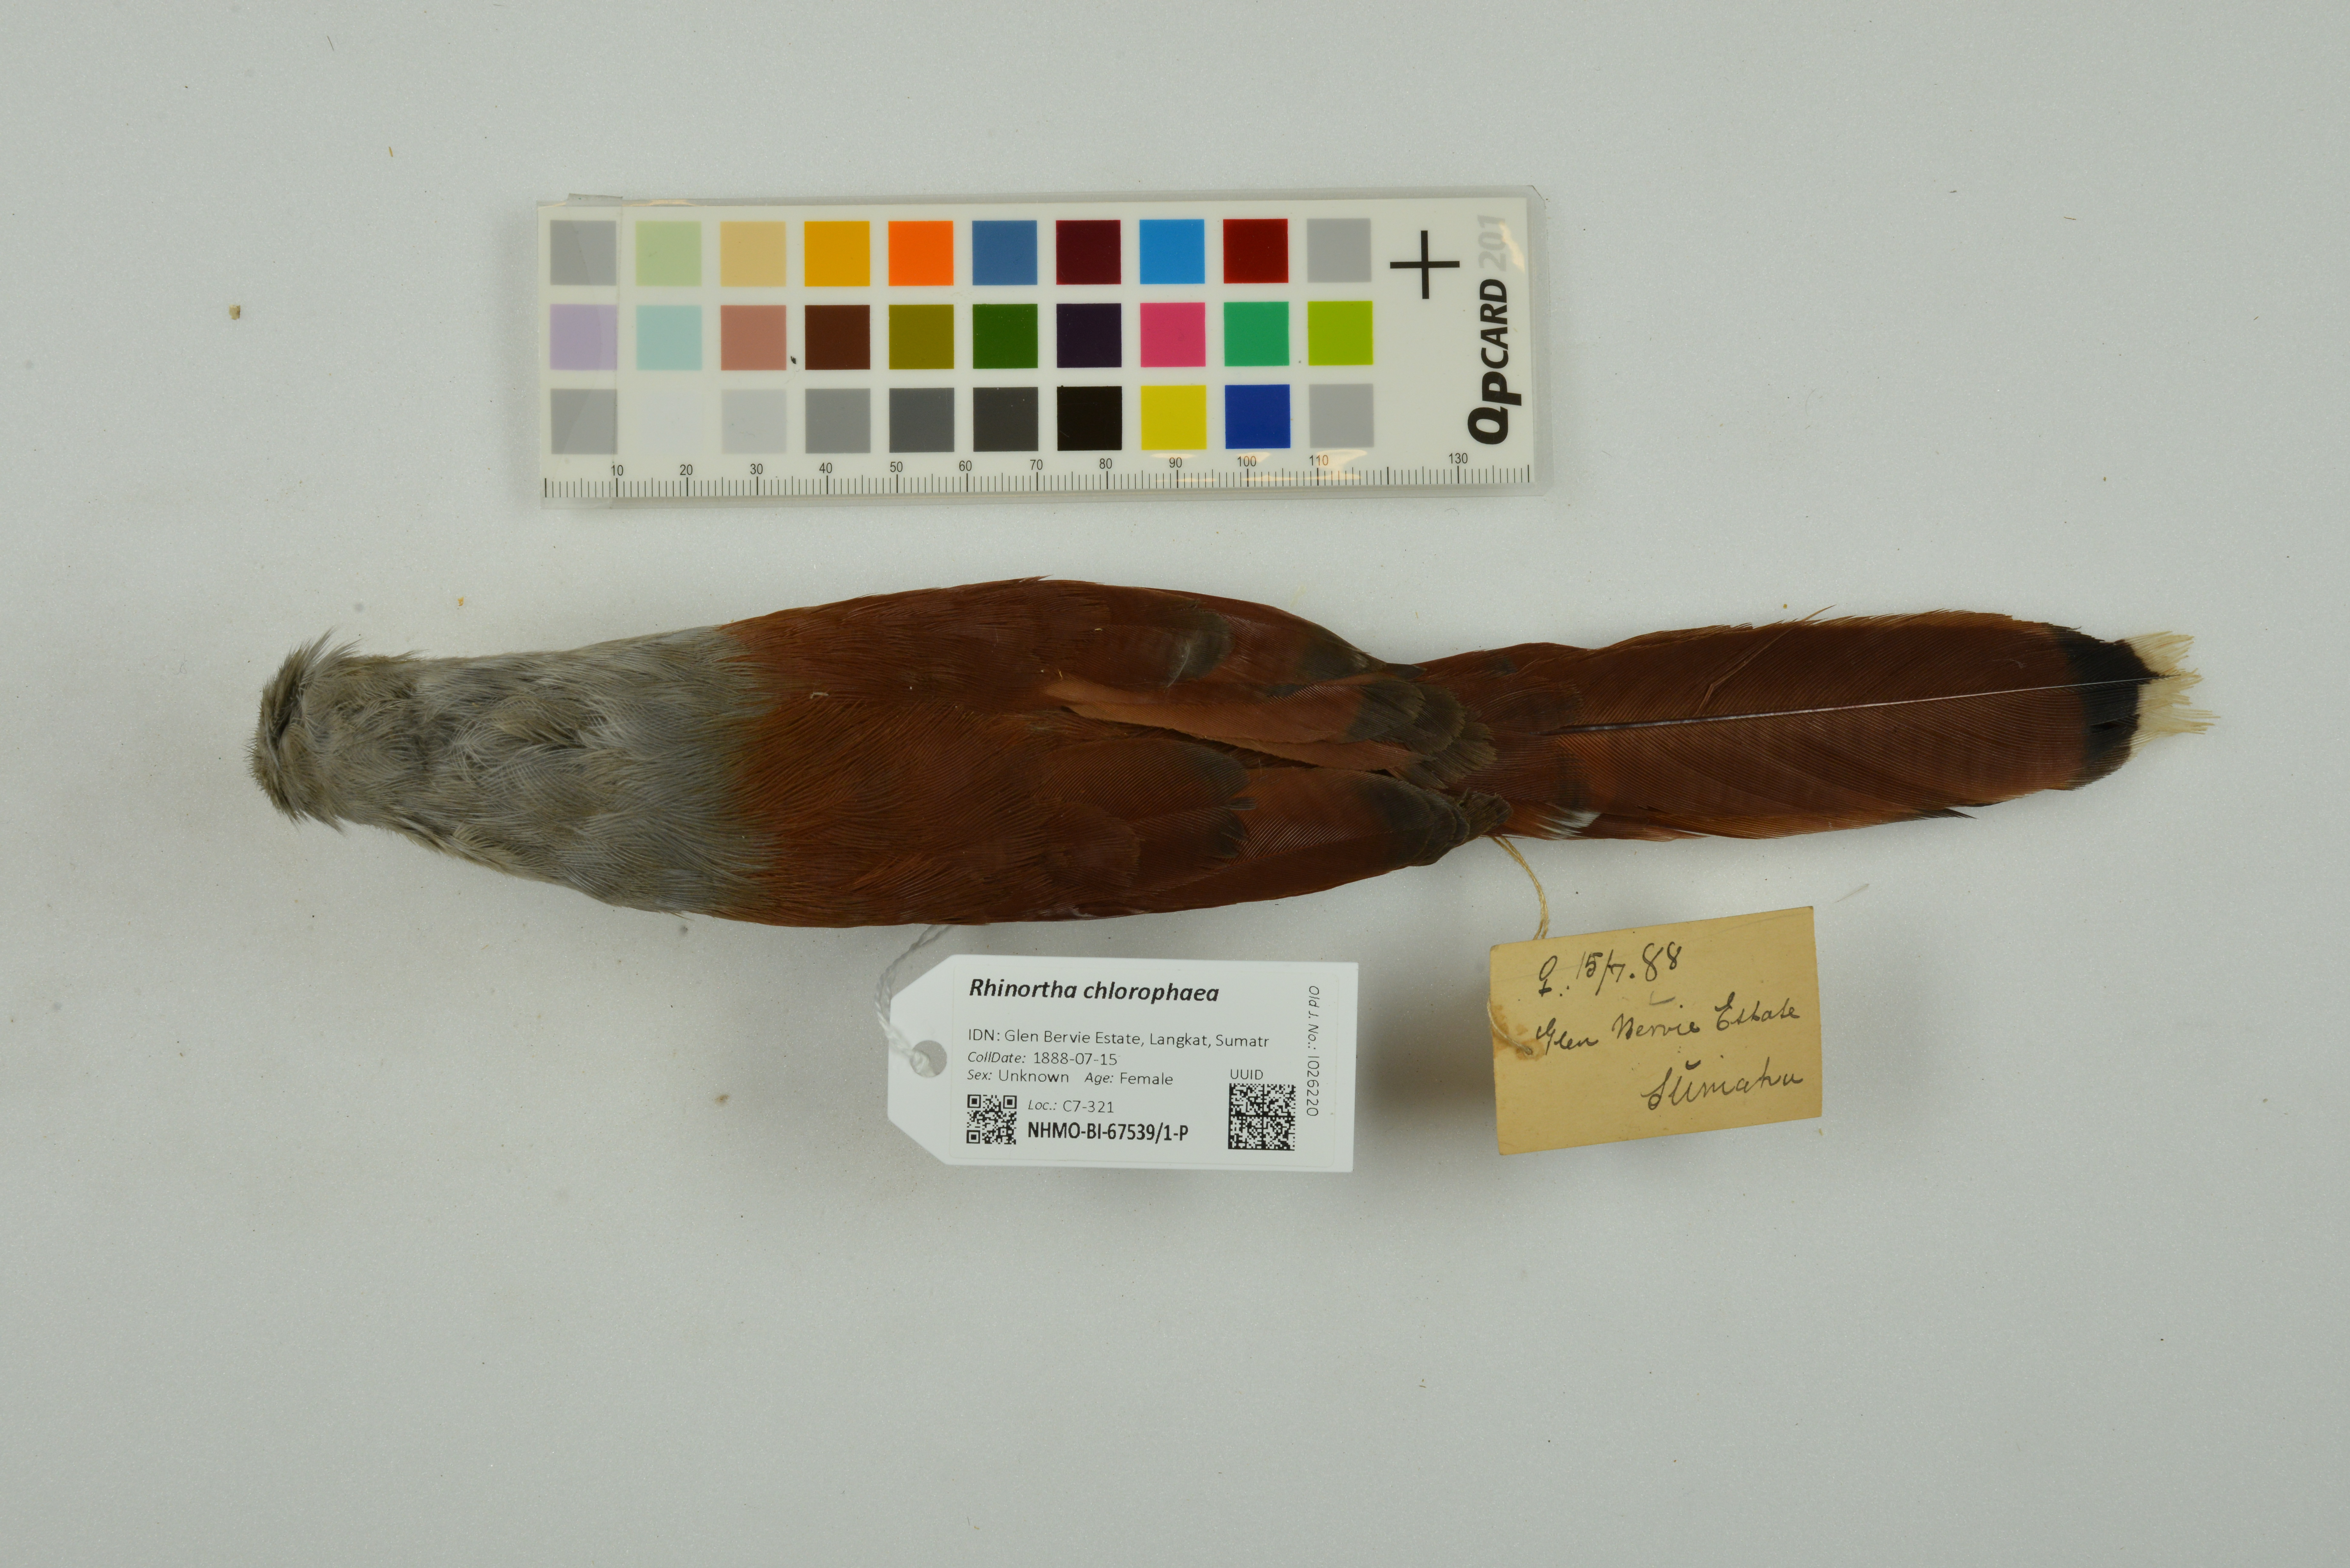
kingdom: Animalia
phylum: Chordata
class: Aves
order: Cuculiformes
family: Cuculidae
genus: Rhinortha
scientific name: Rhinortha chlorophaea
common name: Raffles's malkoha
